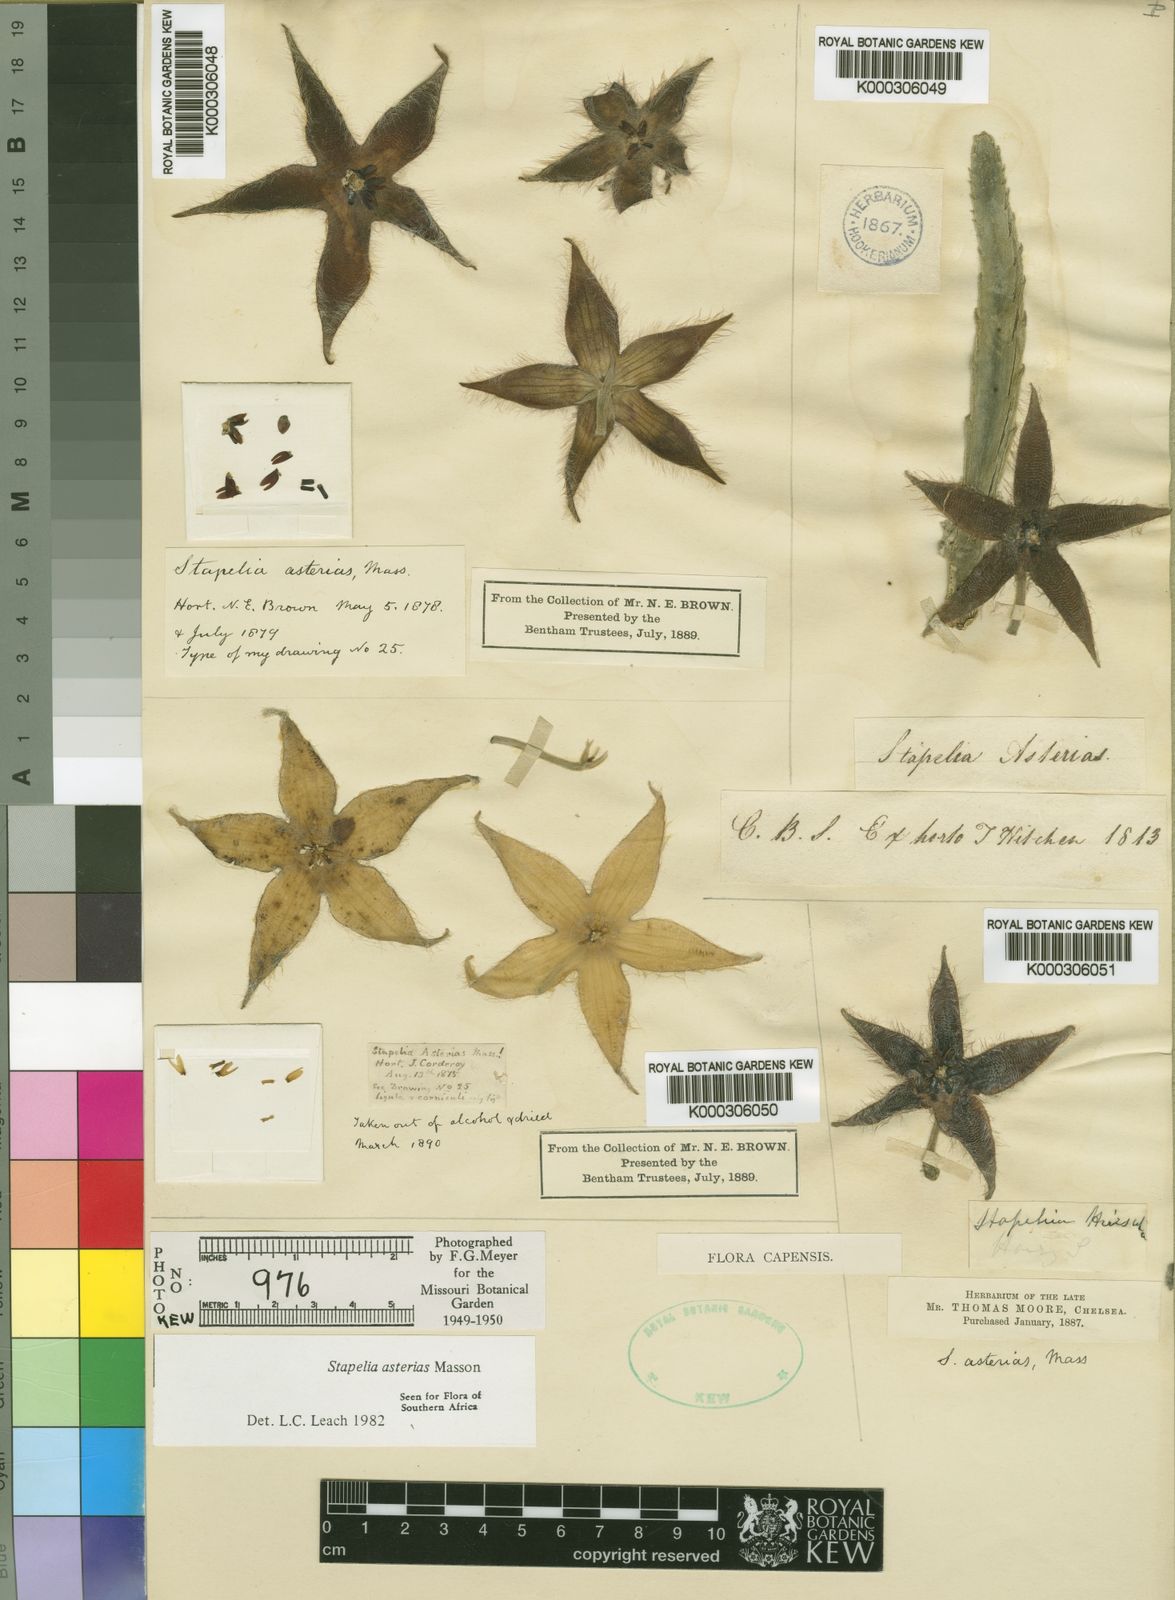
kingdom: Plantae
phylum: Tracheophyta
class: Magnoliopsida
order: Gentianales
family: Apocynaceae
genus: Ceropegia
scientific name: Ceropegia pulvinata
